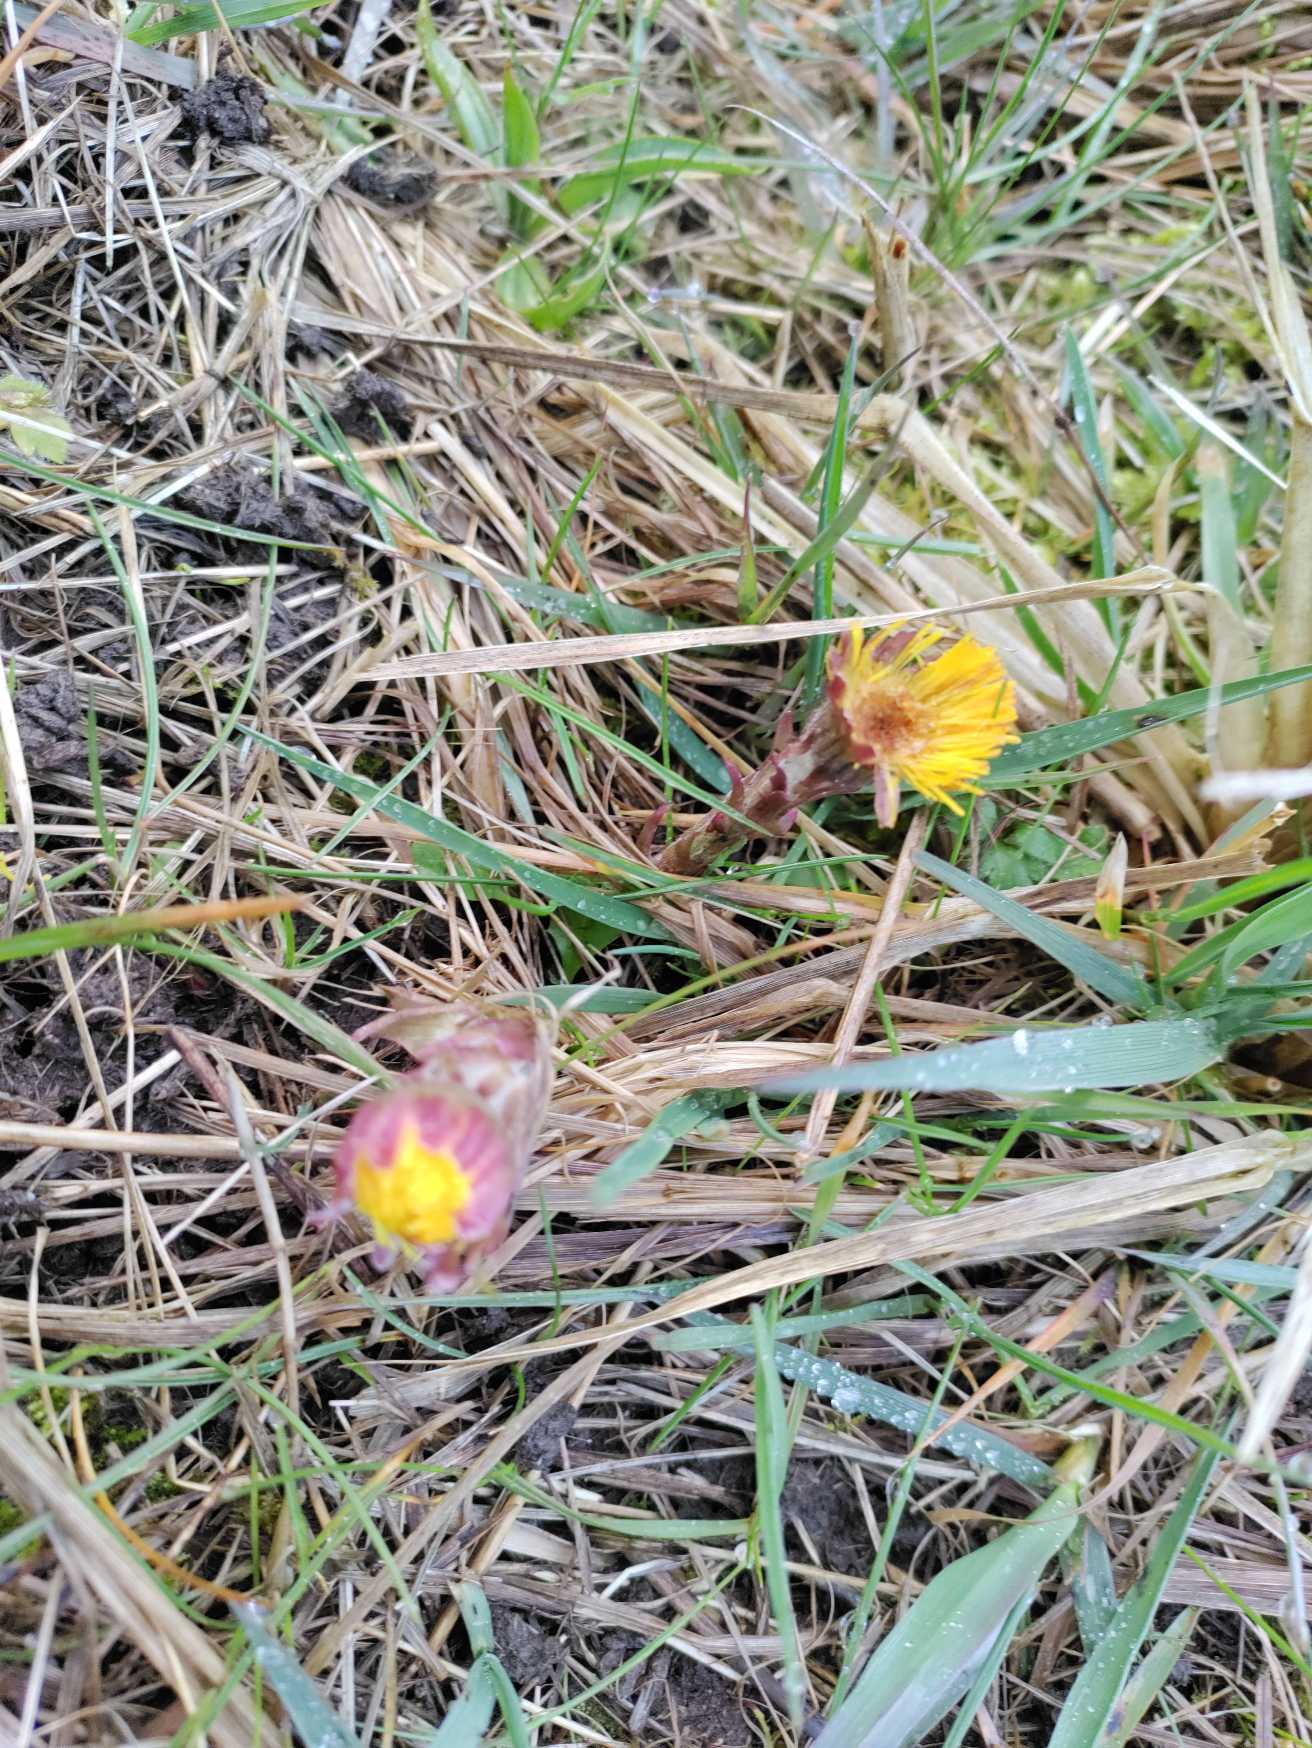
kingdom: Plantae
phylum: Tracheophyta
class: Magnoliopsida
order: Asterales
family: Asteraceae
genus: Tussilago
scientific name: Tussilago farfara
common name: Følfod
